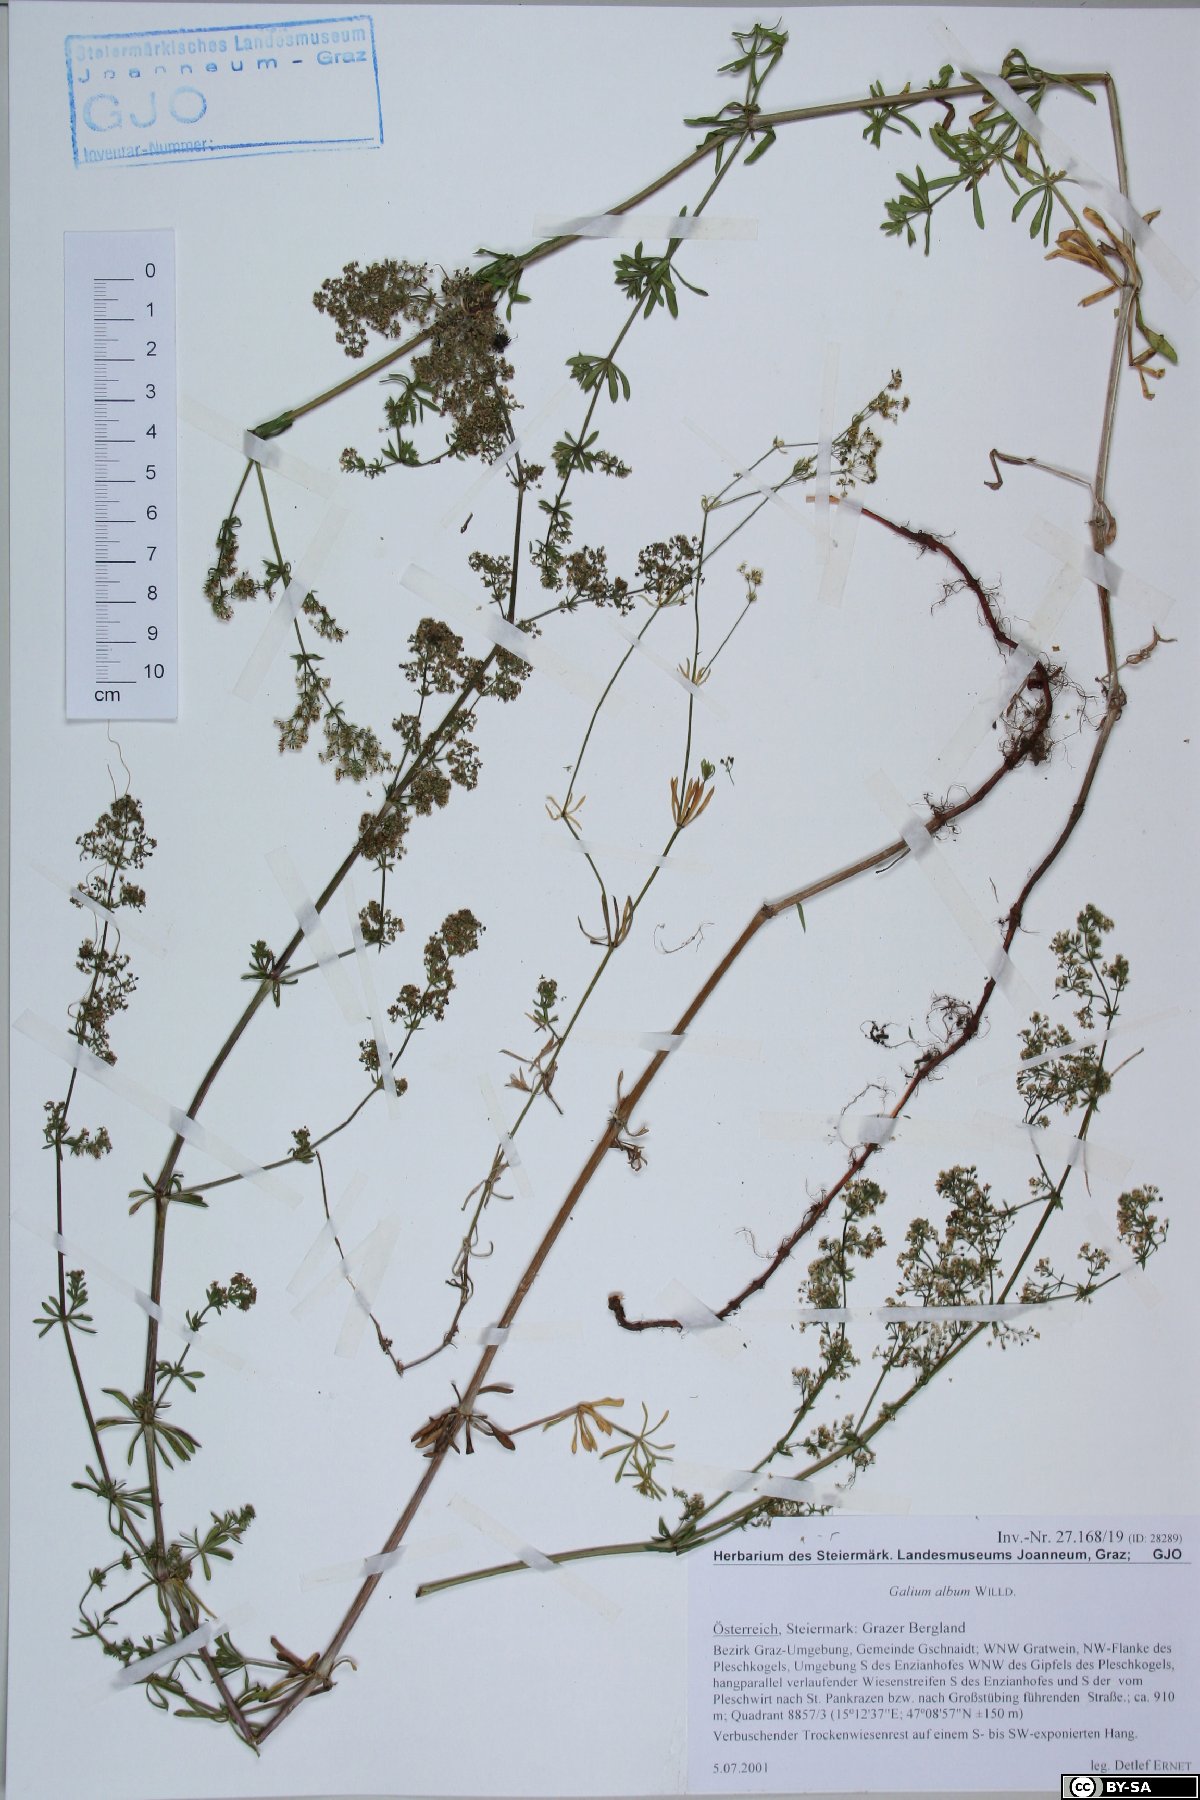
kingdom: Plantae
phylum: Tracheophyta
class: Magnoliopsida
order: Gentianales
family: Rubiaceae
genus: Galium
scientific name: Galium album
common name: White bedstraw
